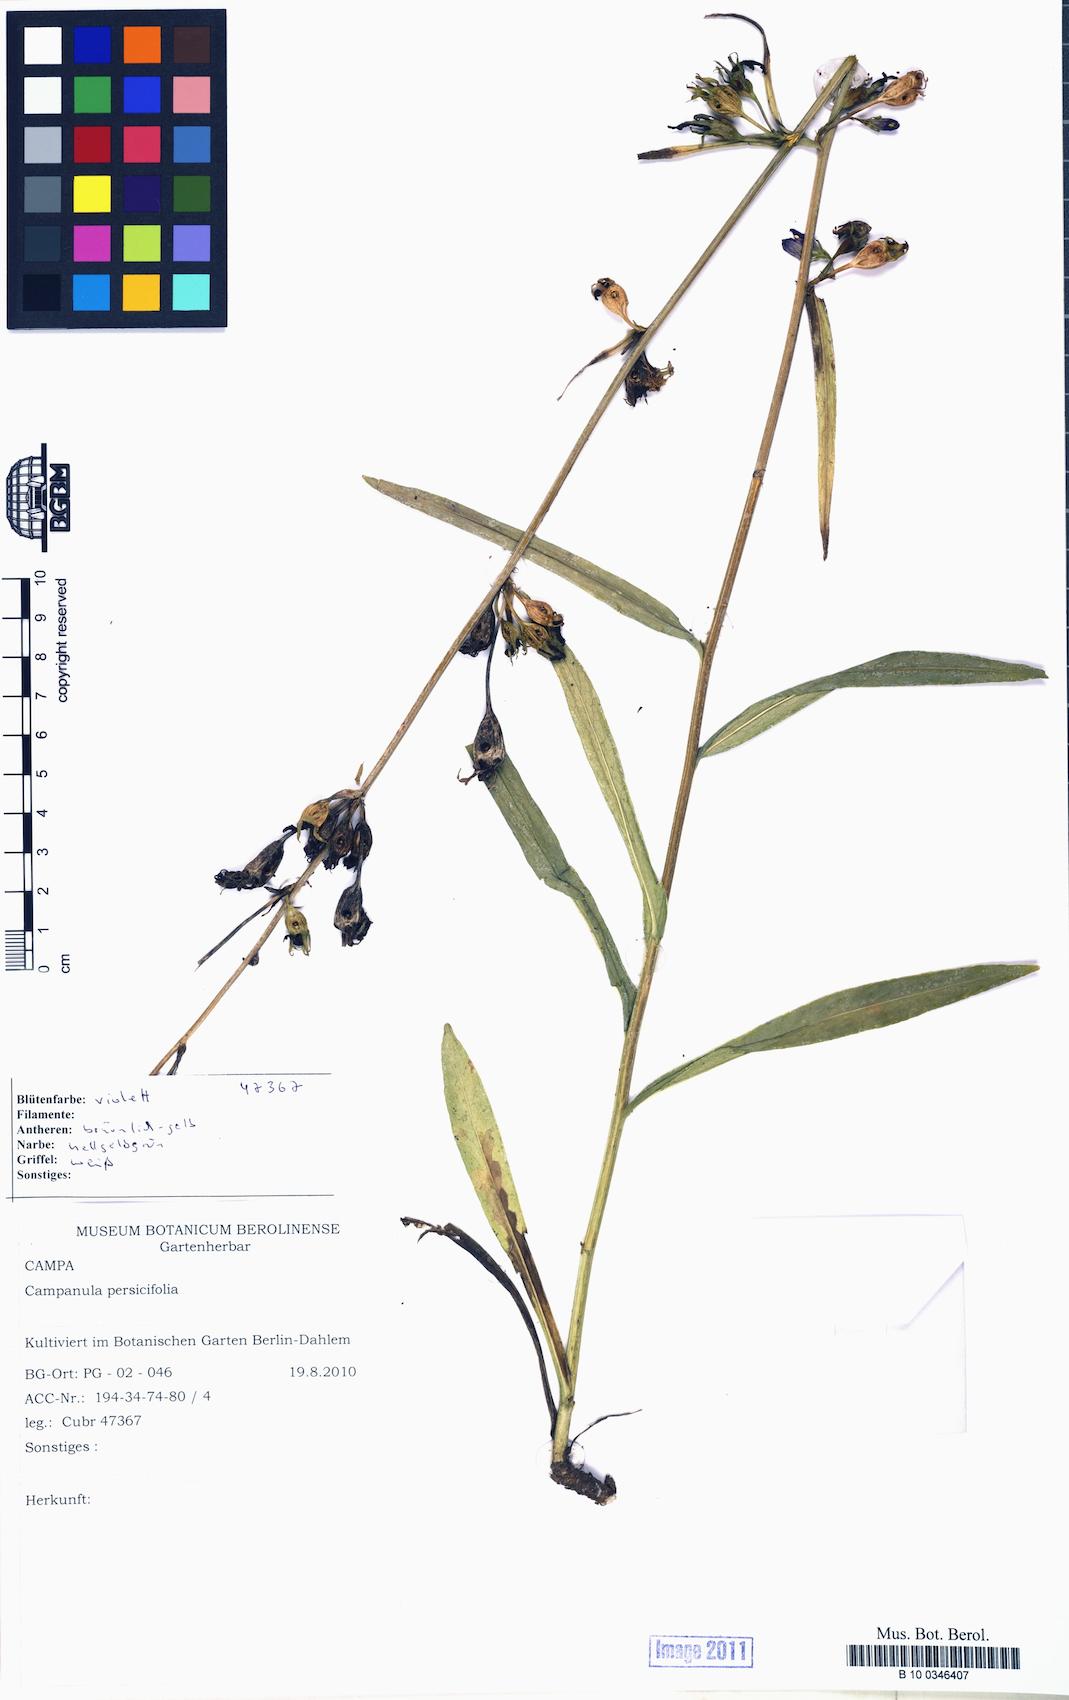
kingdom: Plantae
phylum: Tracheophyta
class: Magnoliopsida
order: Asterales
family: Campanulaceae
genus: Campanula
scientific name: Campanula persicifolia
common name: Peach-leaved bellflower
